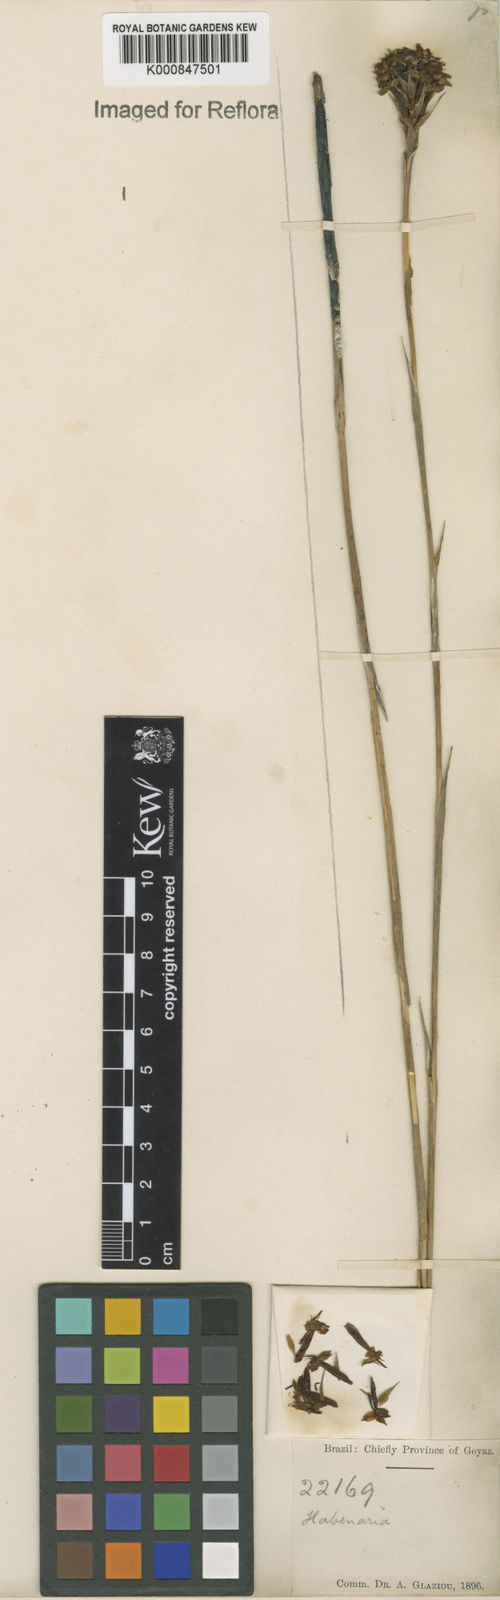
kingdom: Plantae
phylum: Tracheophyta
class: Liliopsida
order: Asparagales
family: Orchidaceae
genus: Habenaria
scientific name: Habenaria
